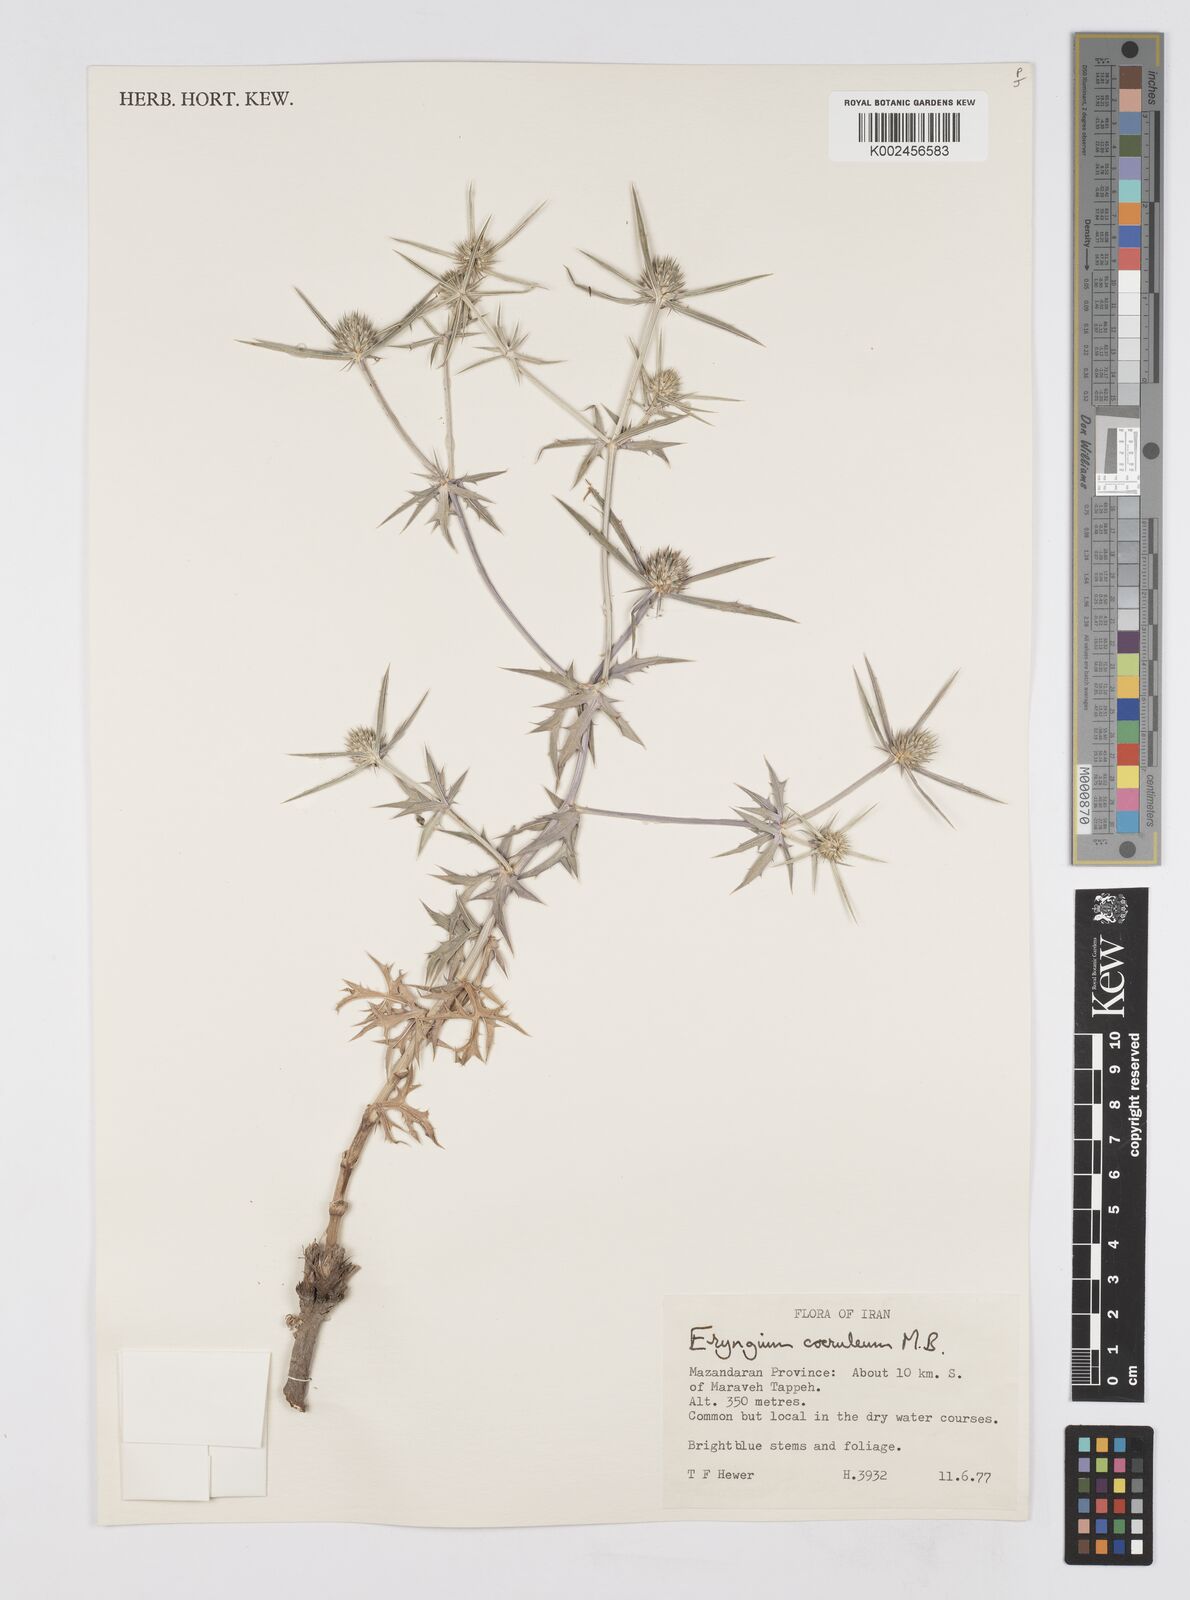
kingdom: Plantae
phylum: Tracheophyta
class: Magnoliopsida
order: Apiales
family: Apiaceae
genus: Eryngium
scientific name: Eryngium caeruleum
